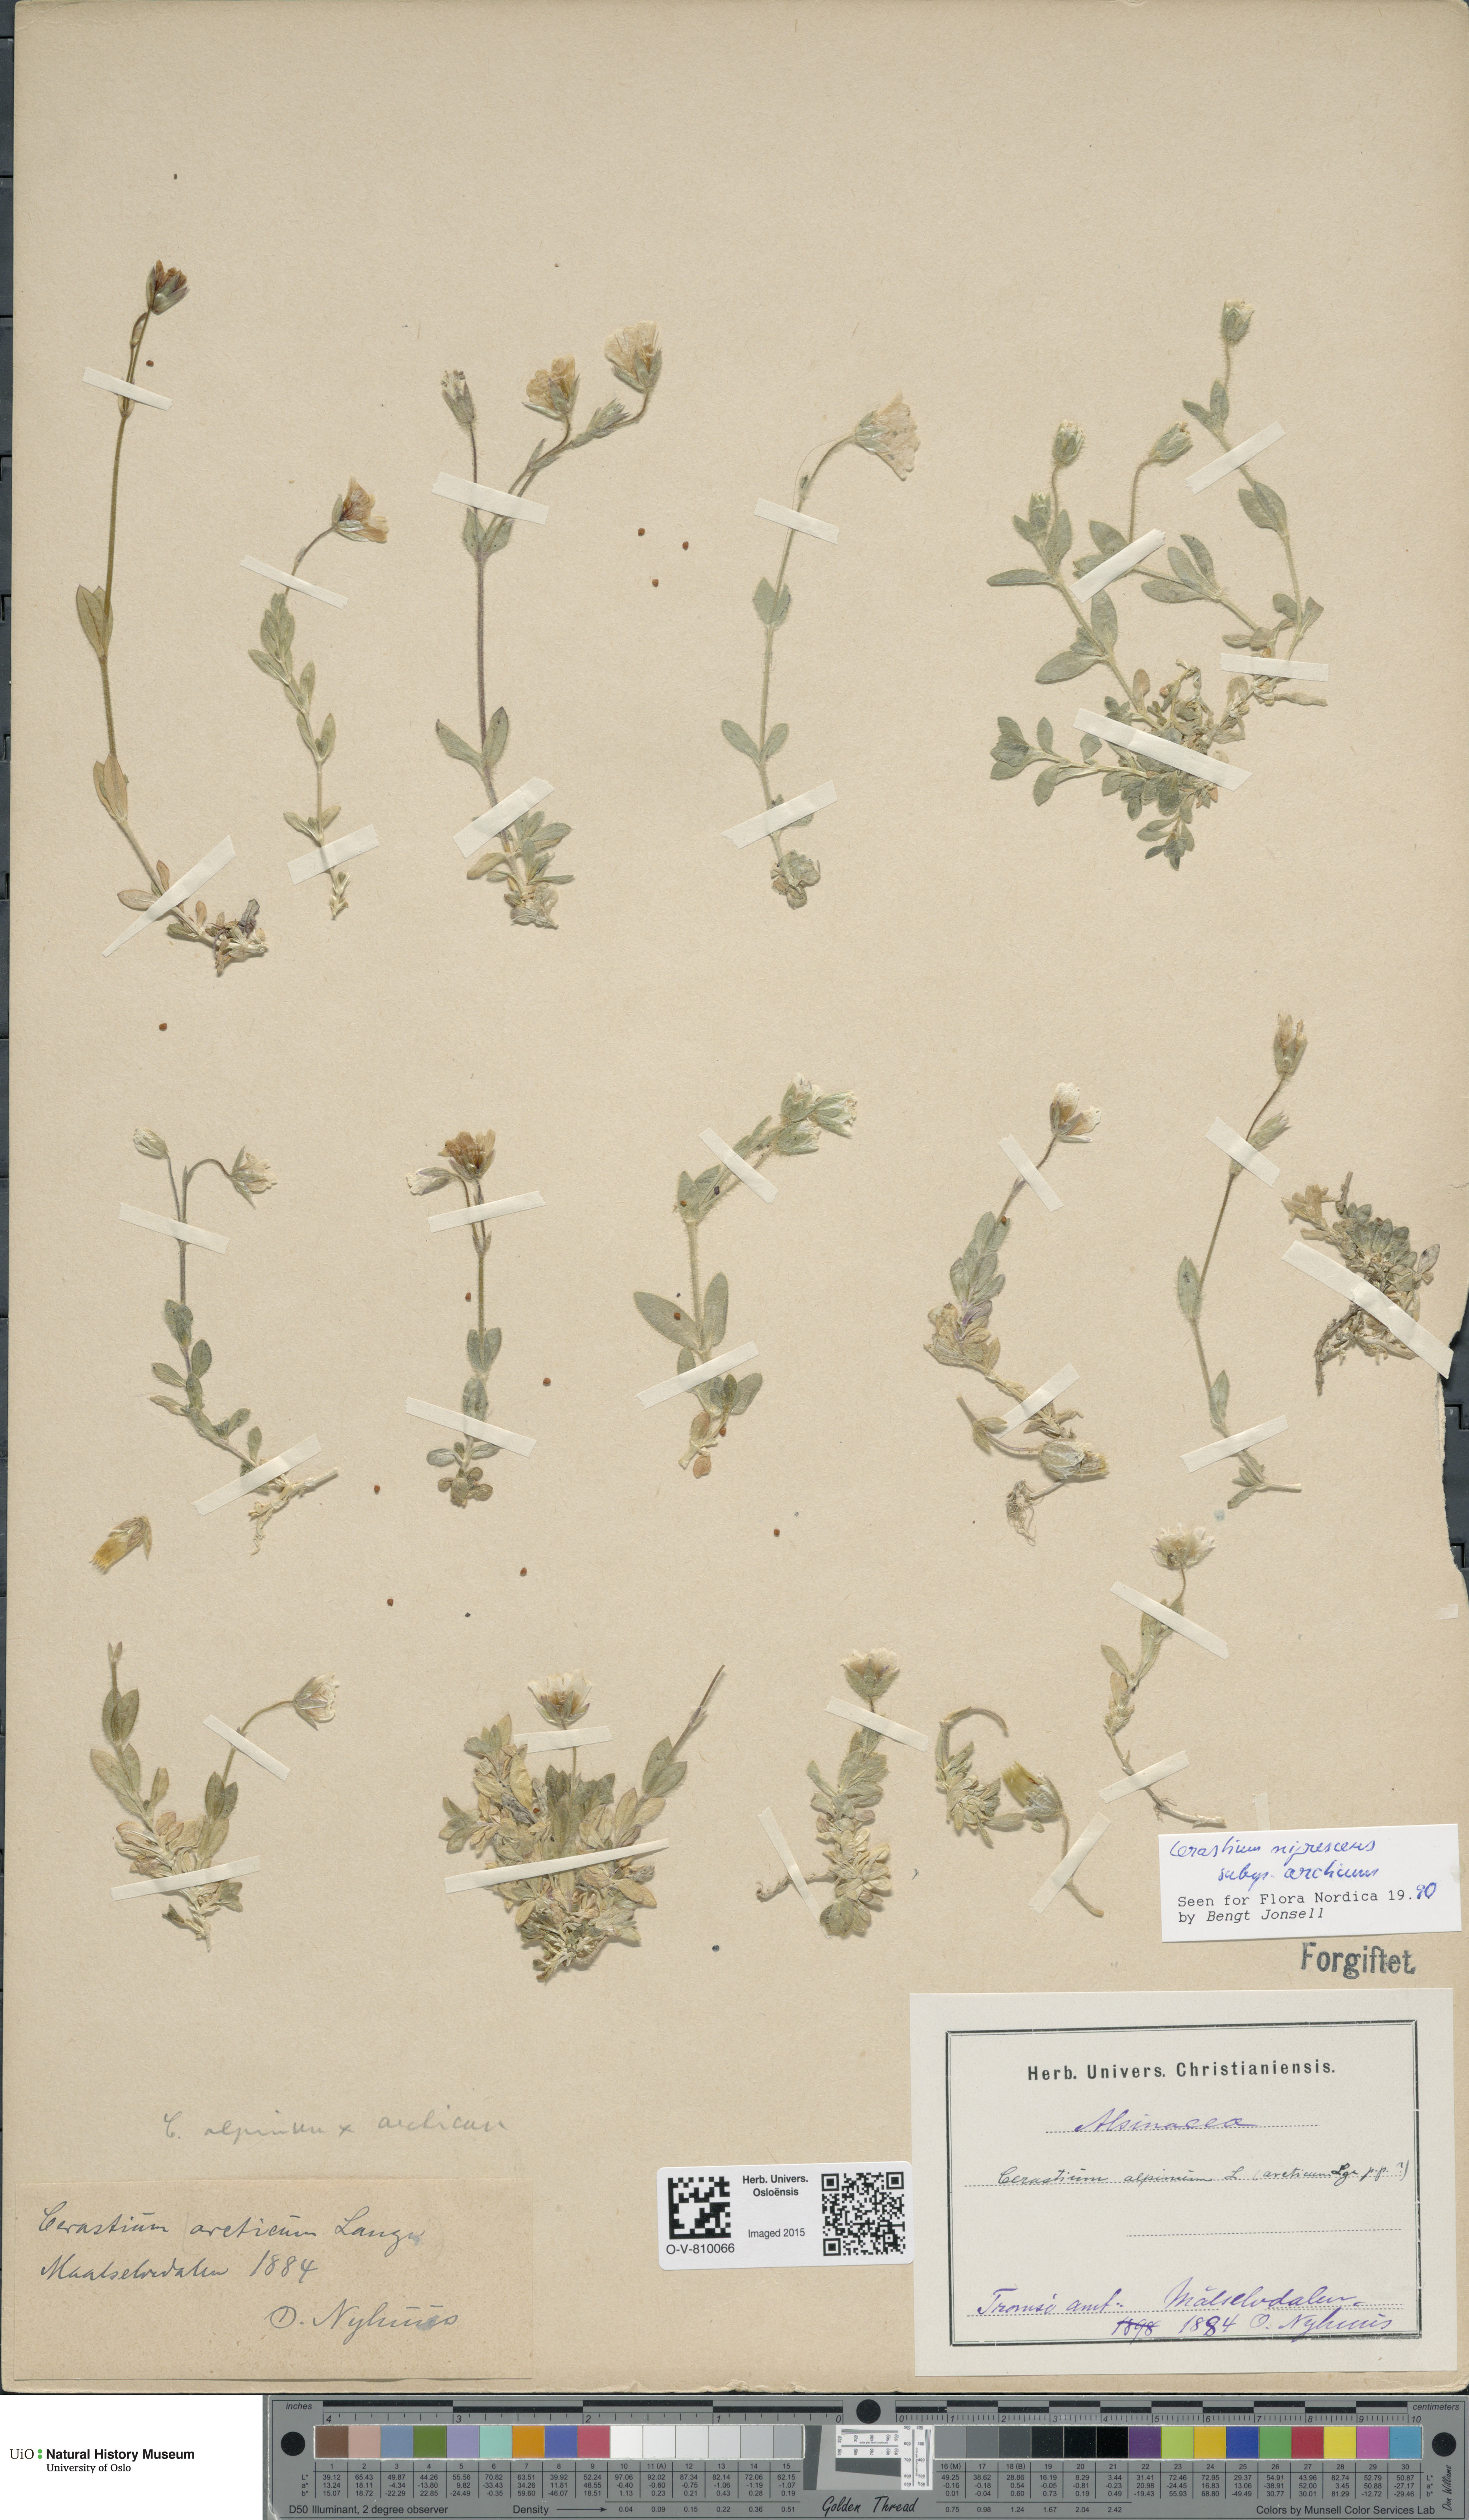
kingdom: Plantae
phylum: Tracheophyta
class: Magnoliopsida
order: Caryophyllales
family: Caryophyllaceae
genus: Cerastium
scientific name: Cerastium arcticum
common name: Arctic mouse-ear
